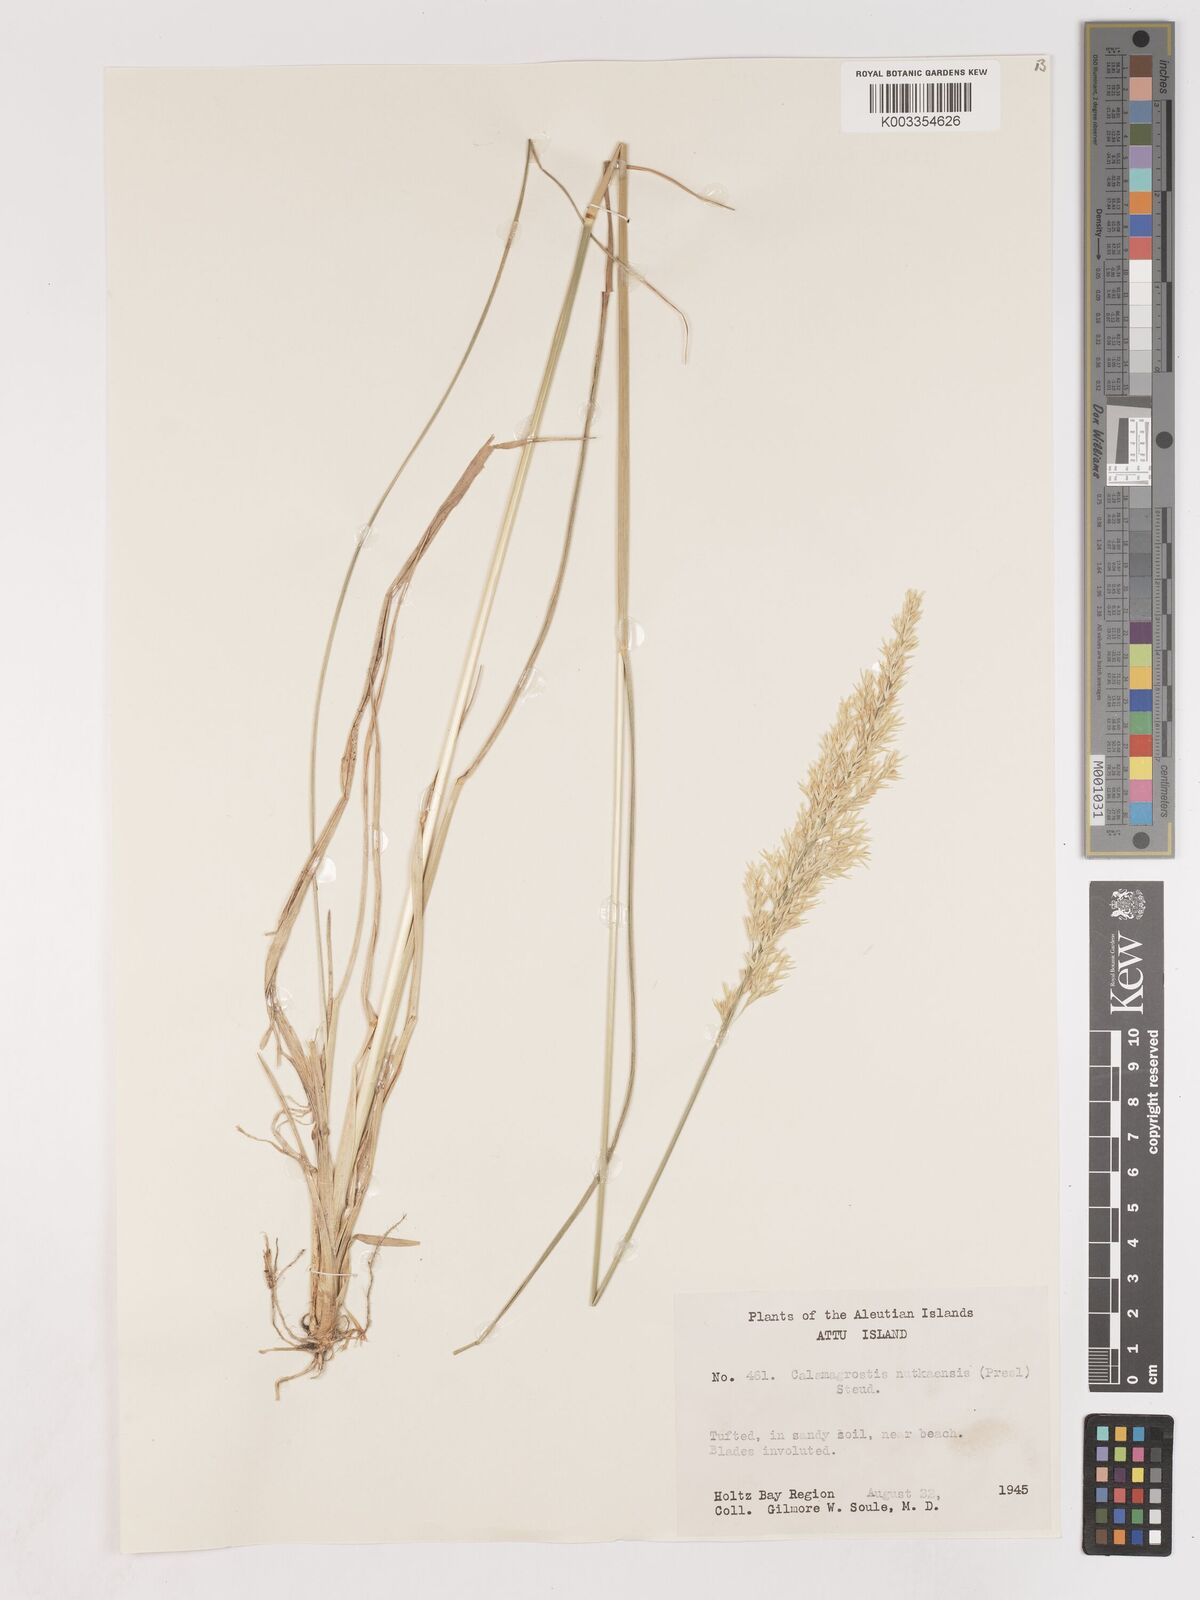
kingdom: Plantae
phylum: Tracheophyta
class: Liliopsida
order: Poales
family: Poaceae
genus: Calamagrostis
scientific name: Calamagrostis nutkaensis
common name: Pacific reed grass
